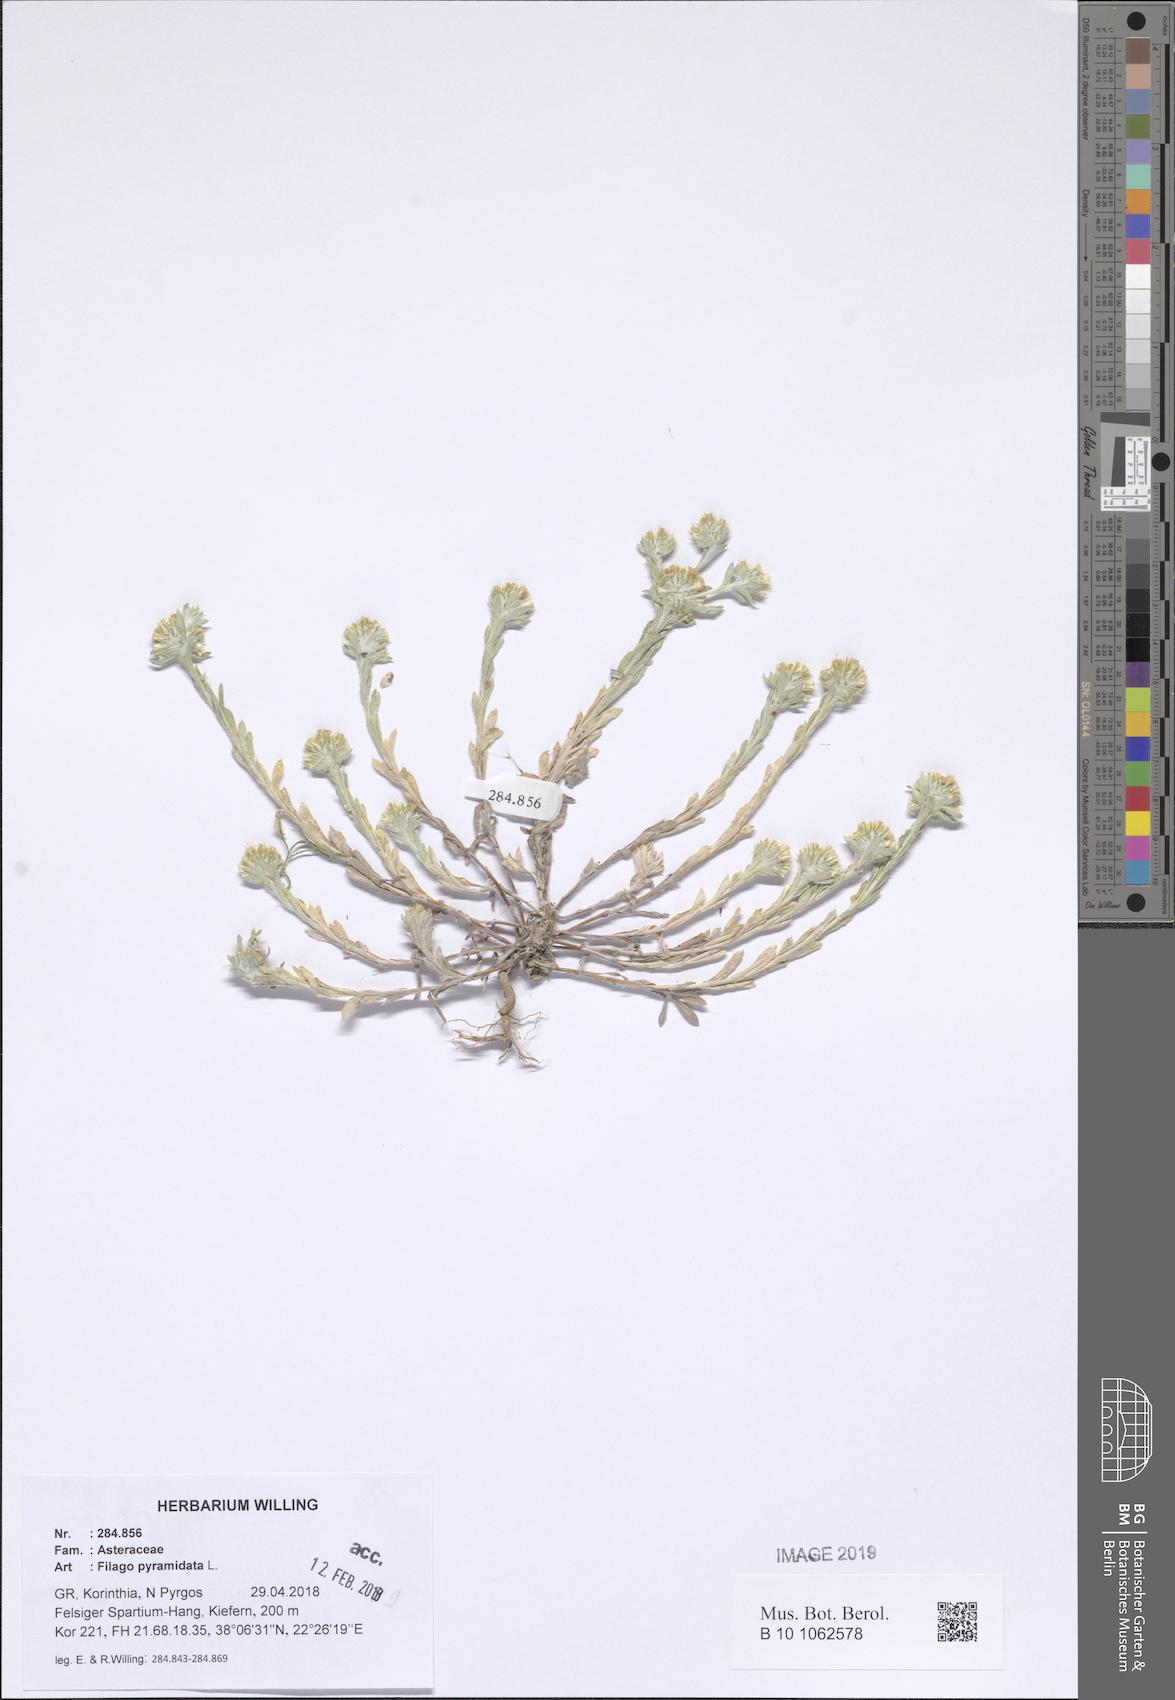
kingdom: Plantae
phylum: Tracheophyta
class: Magnoliopsida
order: Asterales
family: Asteraceae
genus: Filago
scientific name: Filago pyramidata
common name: Broad-leaved cudweed
